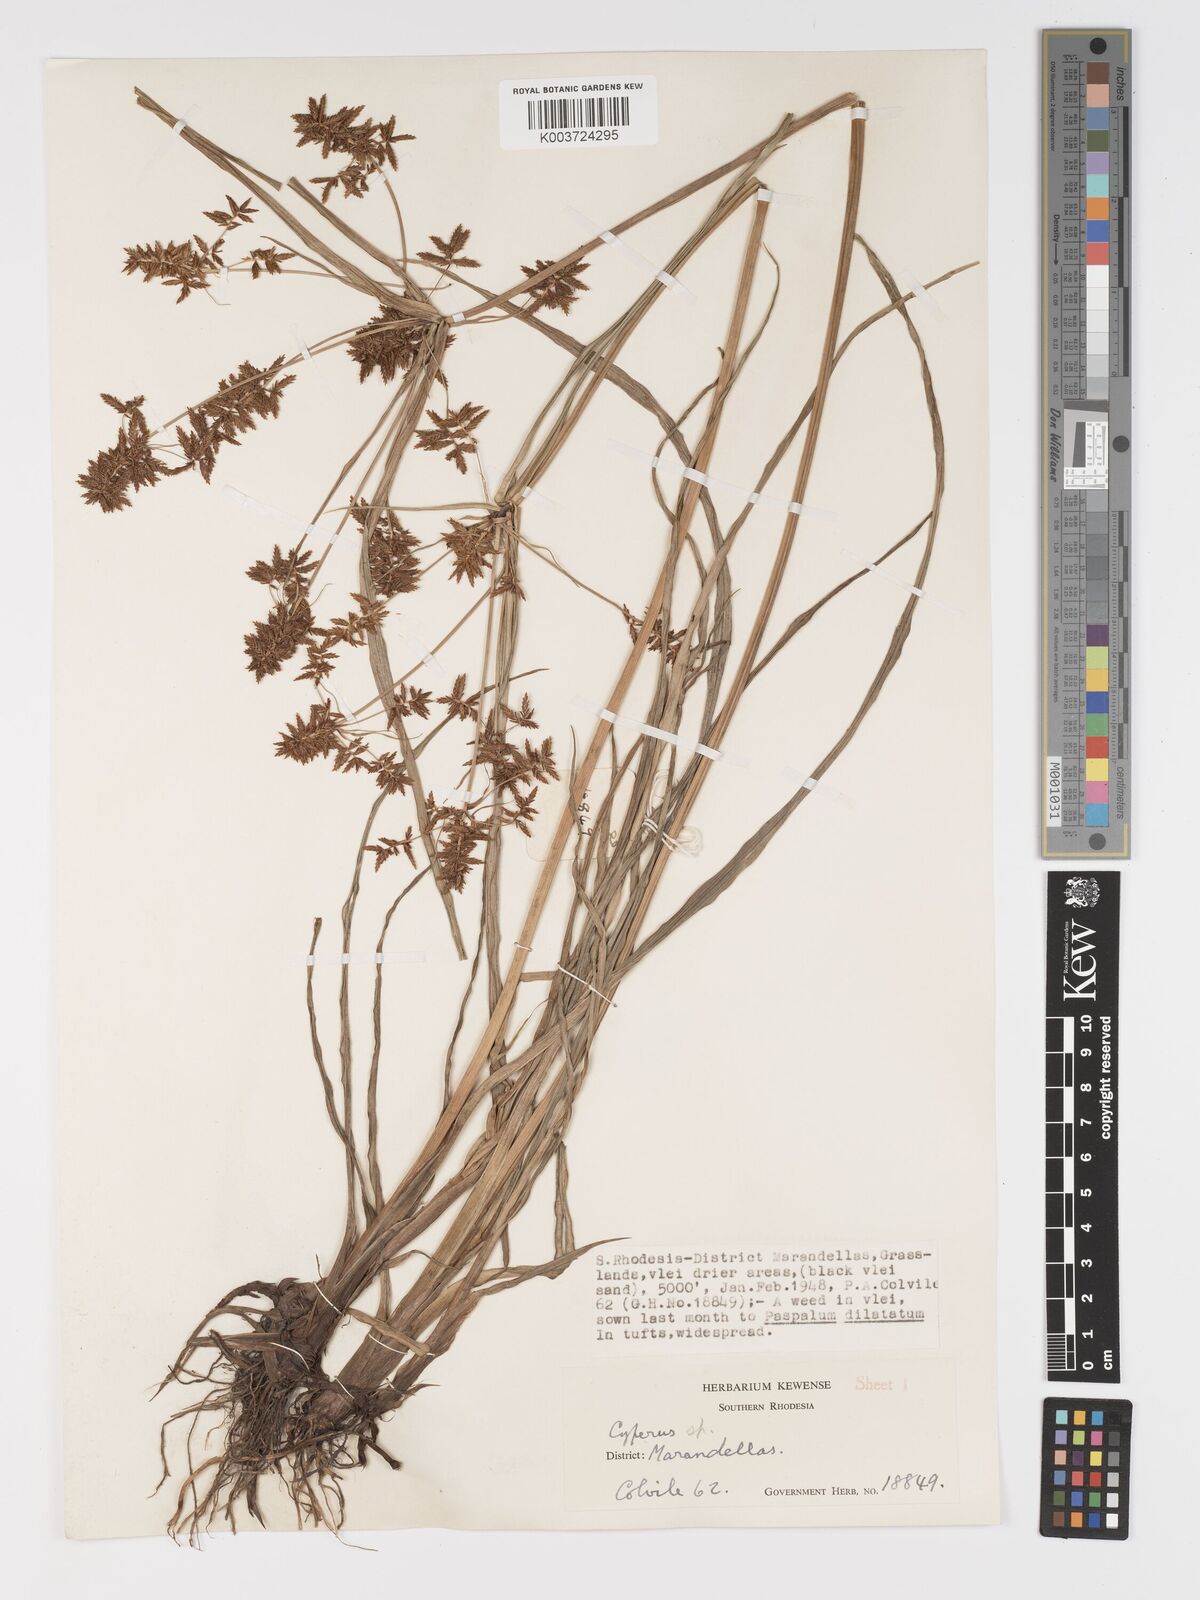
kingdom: Plantae
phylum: Tracheophyta
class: Liliopsida
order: Poales
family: Cyperaceae
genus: Cyperus
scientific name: Cyperus
